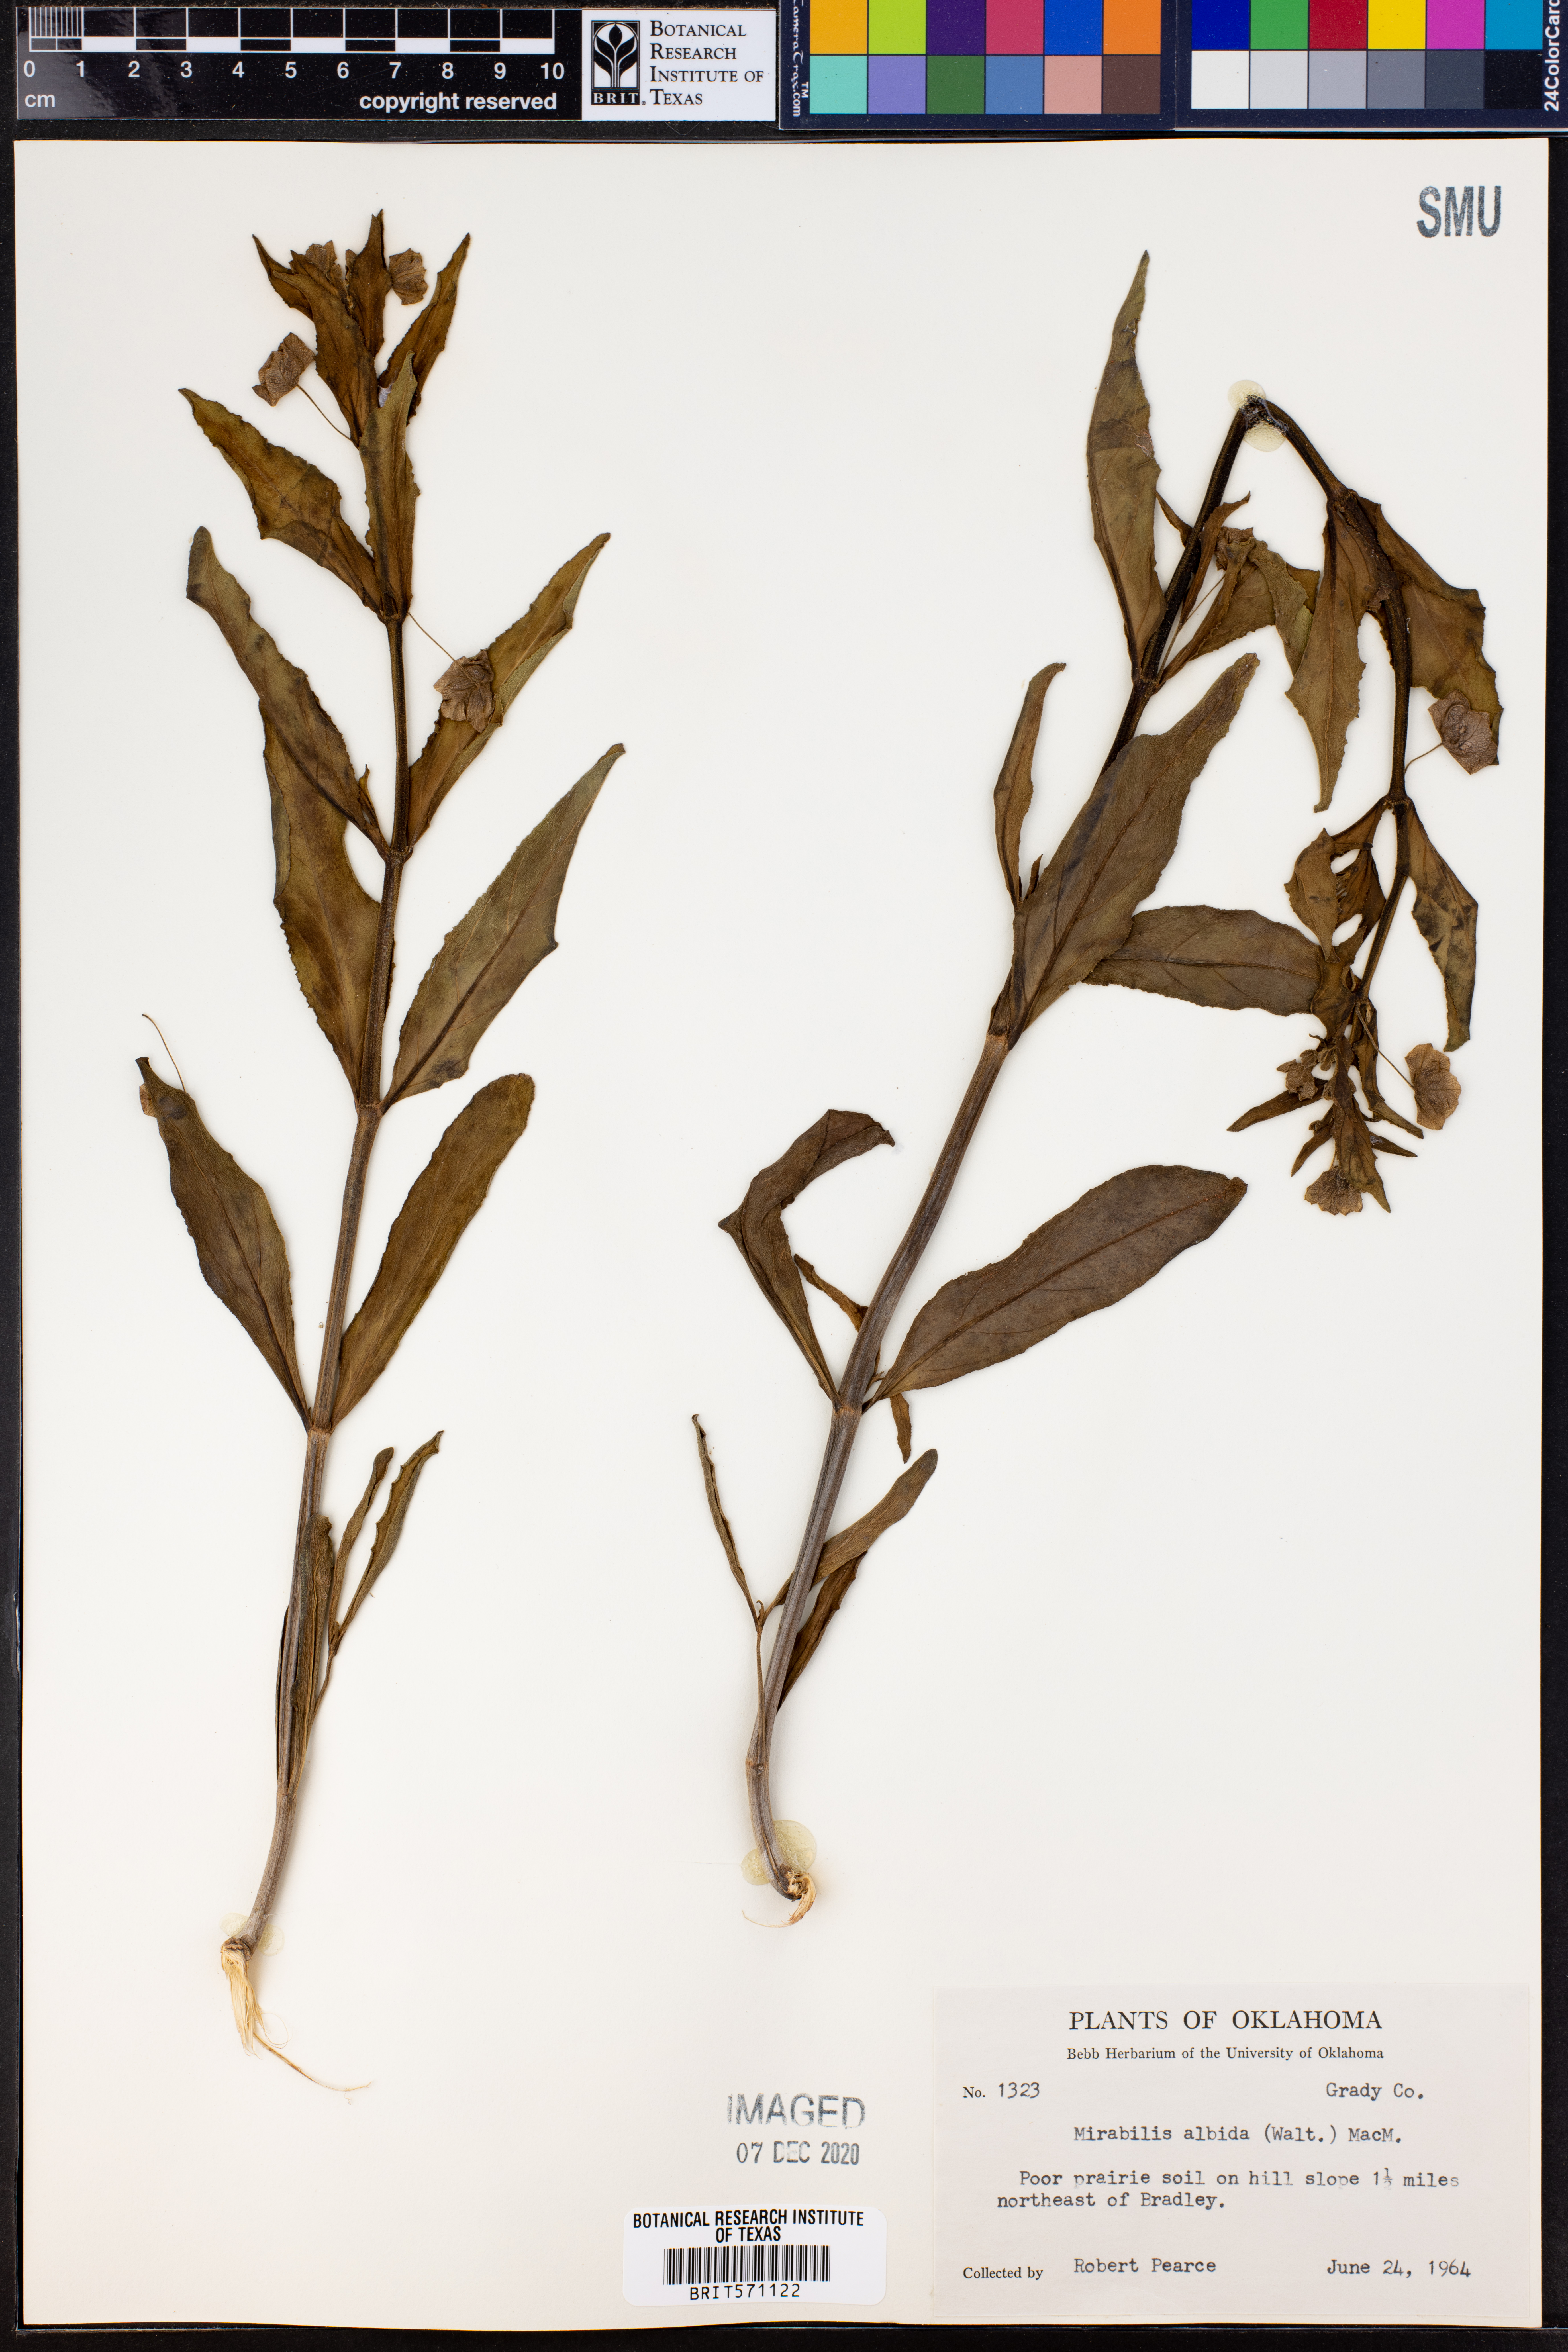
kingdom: Plantae
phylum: Tracheophyta
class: Magnoliopsida
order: Caryophyllales
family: Nyctaginaceae
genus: Mirabilis
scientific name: Mirabilis albida
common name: Hairy four-o'clock
